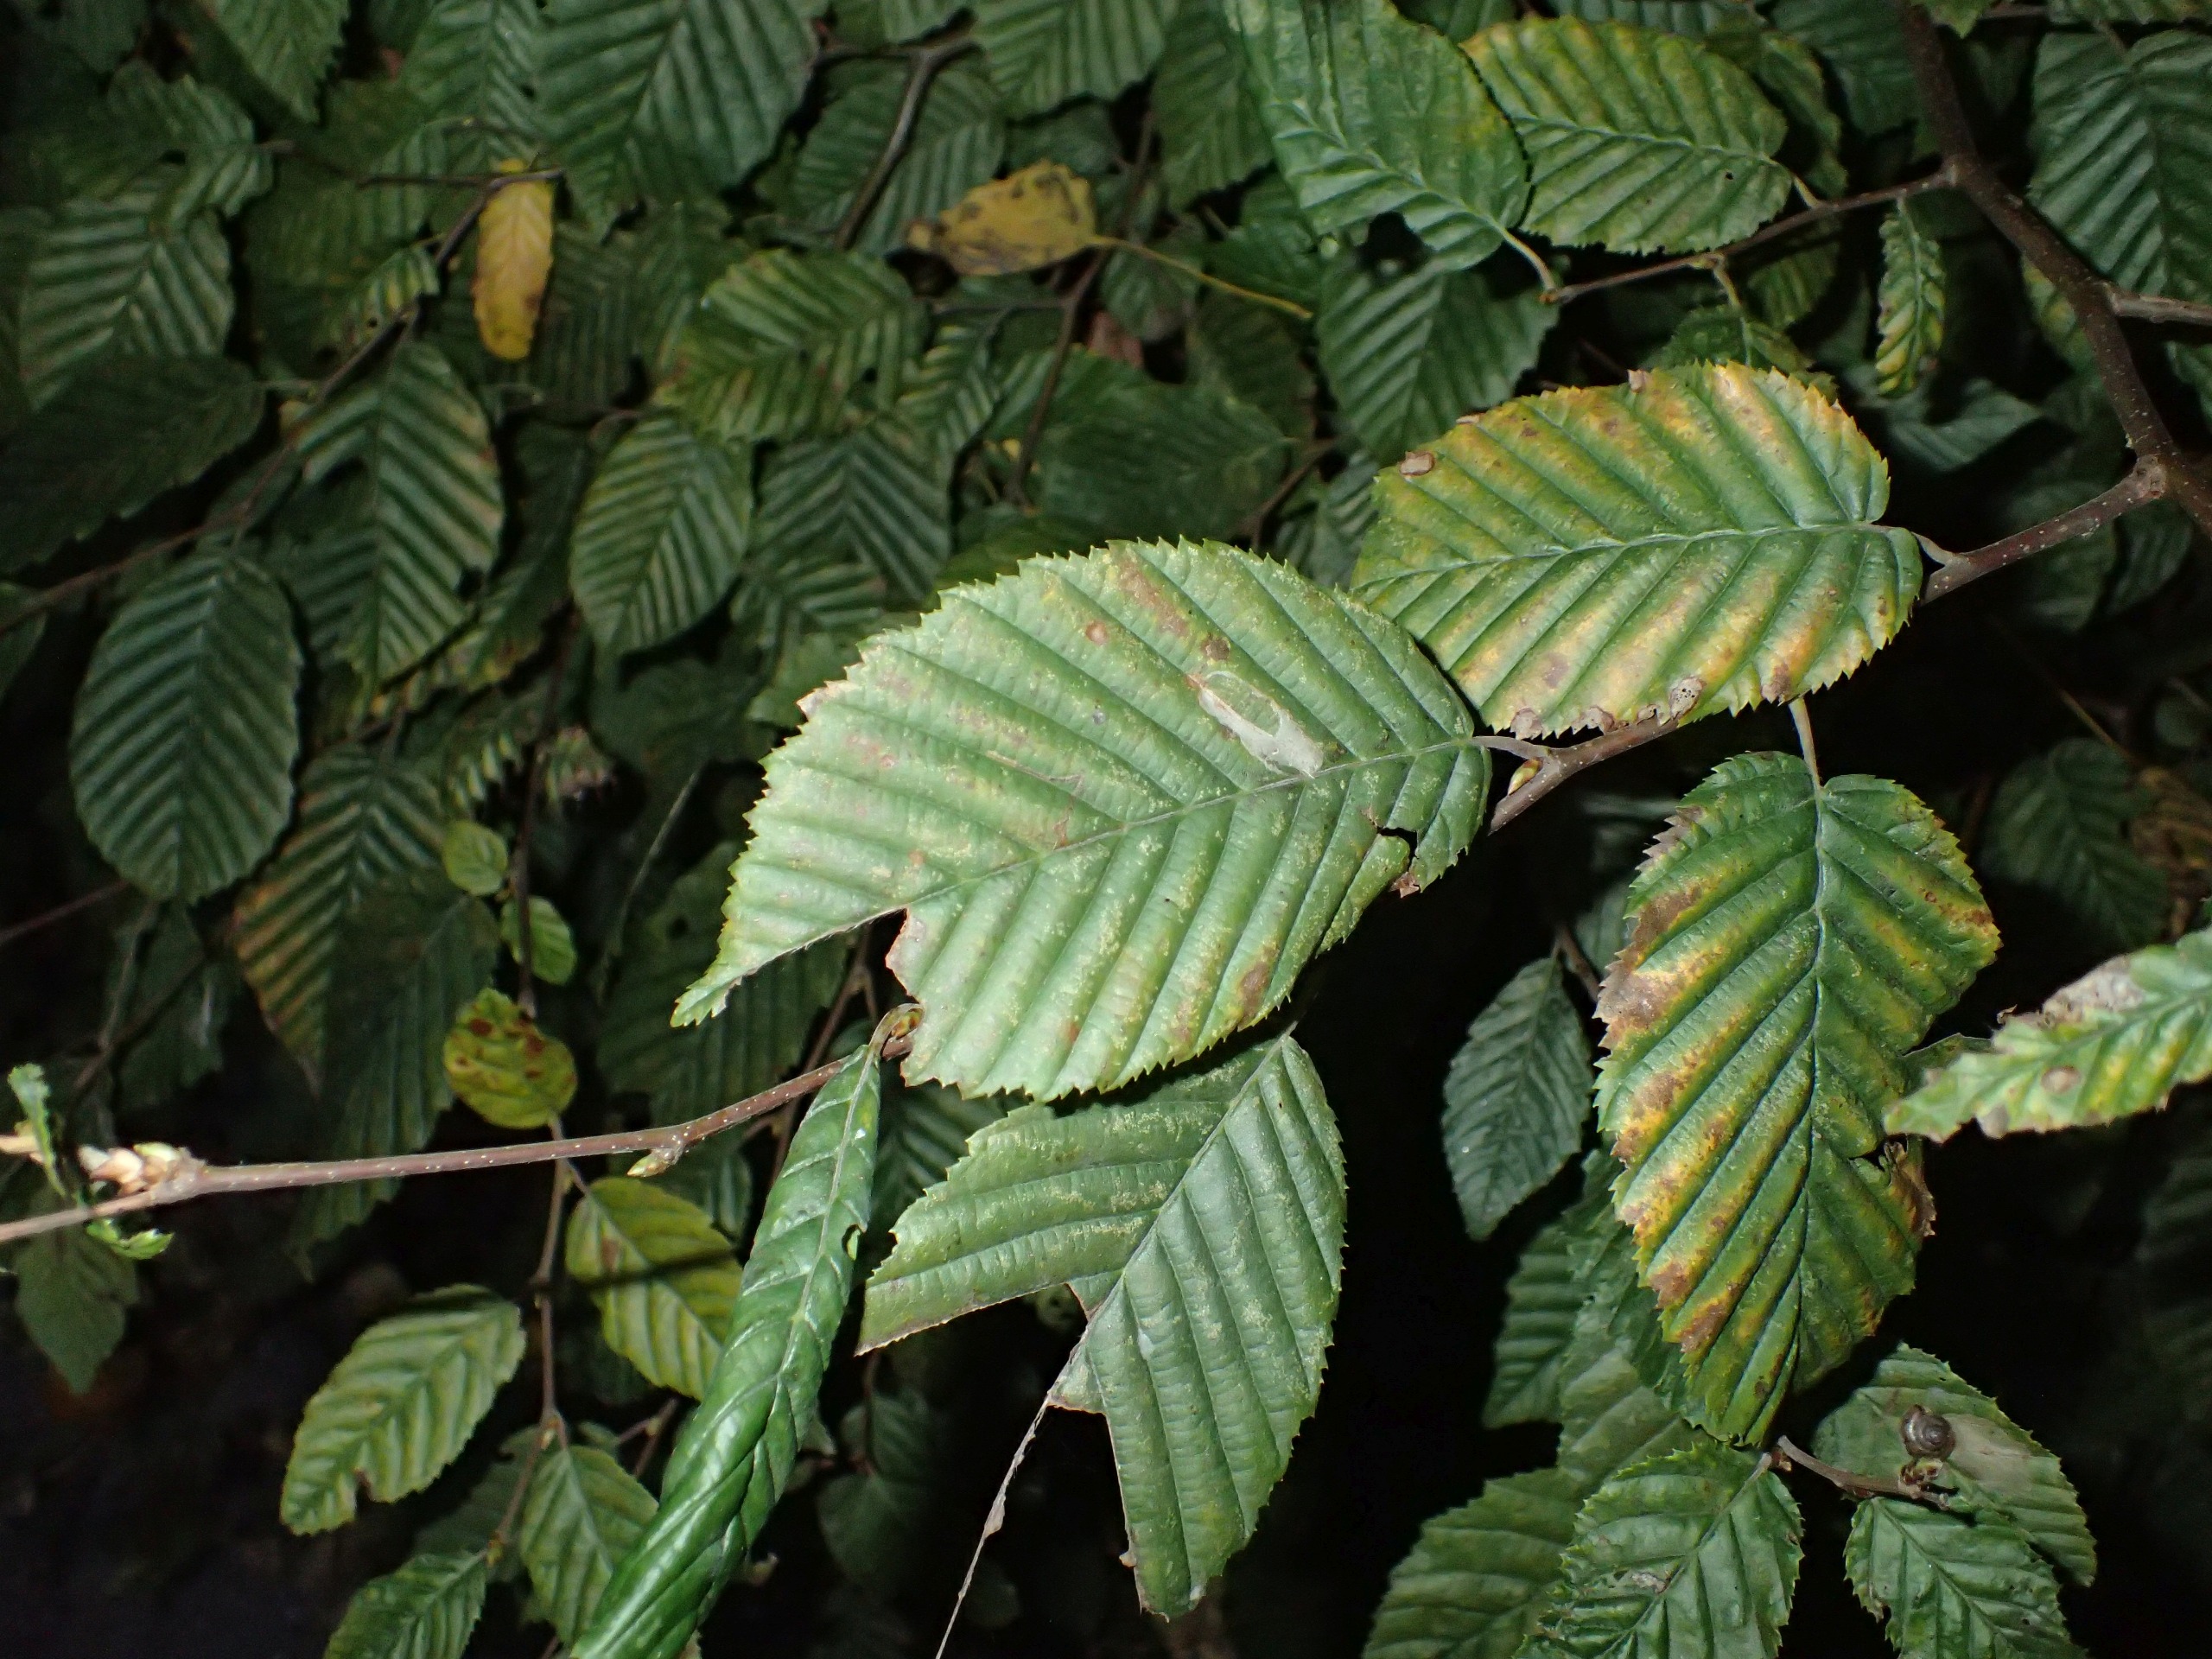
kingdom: Plantae
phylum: Tracheophyta
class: Magnoliopsida
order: Fagales
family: Betulaceae
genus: Carpinus
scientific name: Carpinus betulus
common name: Avnbøg
